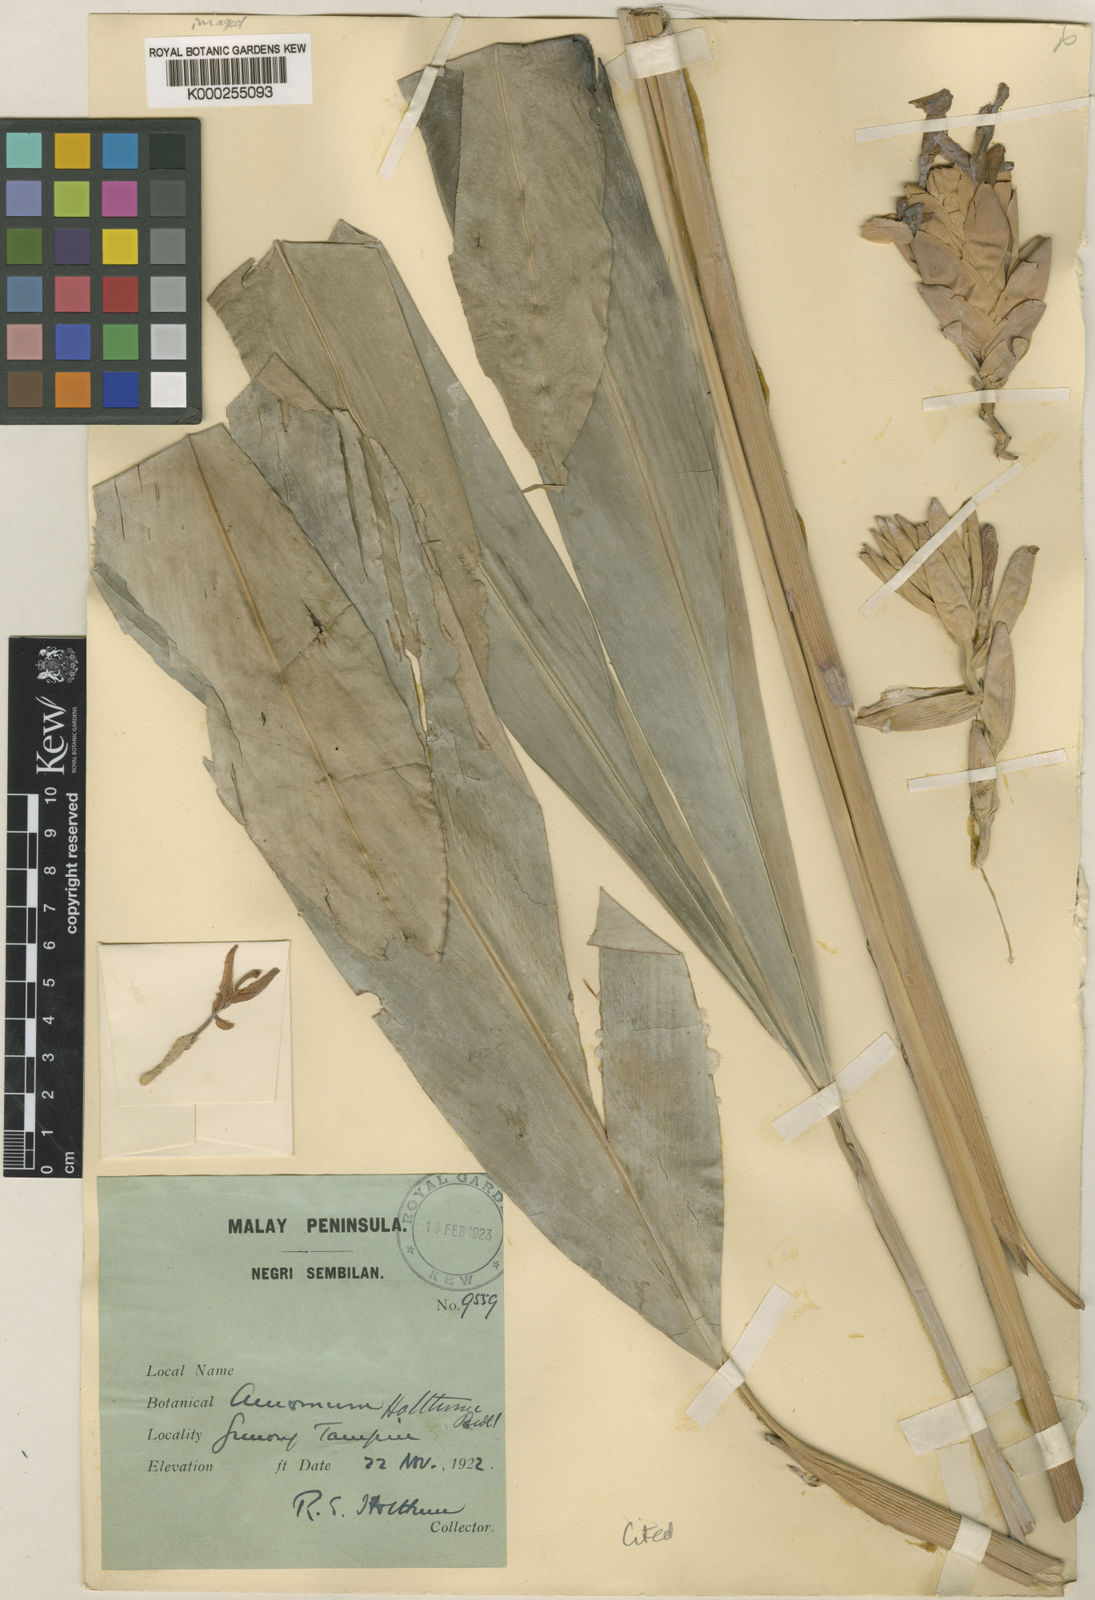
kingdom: Plantae
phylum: Tracheophyta
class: Liliopsida
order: Zingiberales
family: Zingiberaceae
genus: Sundamomum
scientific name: Sundamomum hastilabium
